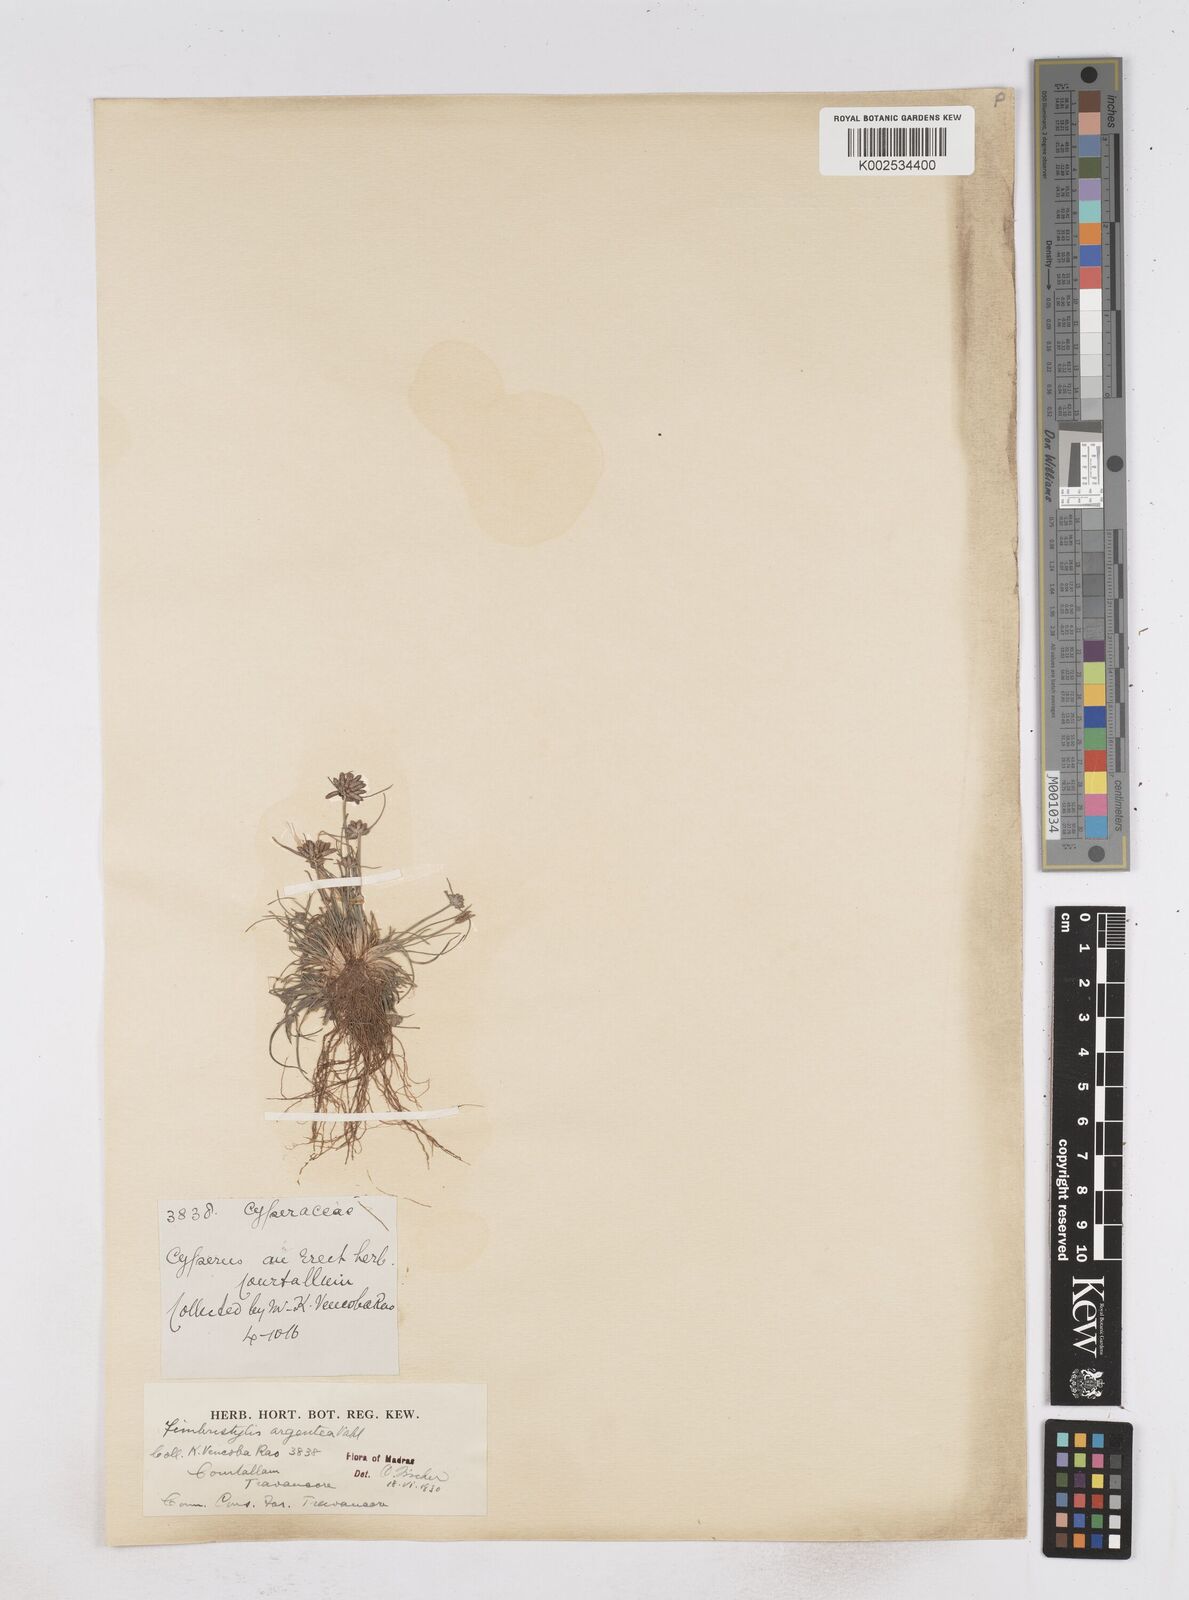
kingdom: Plantae
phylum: Tracheophyta
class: Liliopsida
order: Poales
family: Cyperaceae
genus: Fimbristylis
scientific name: Fimbristylis argentea
